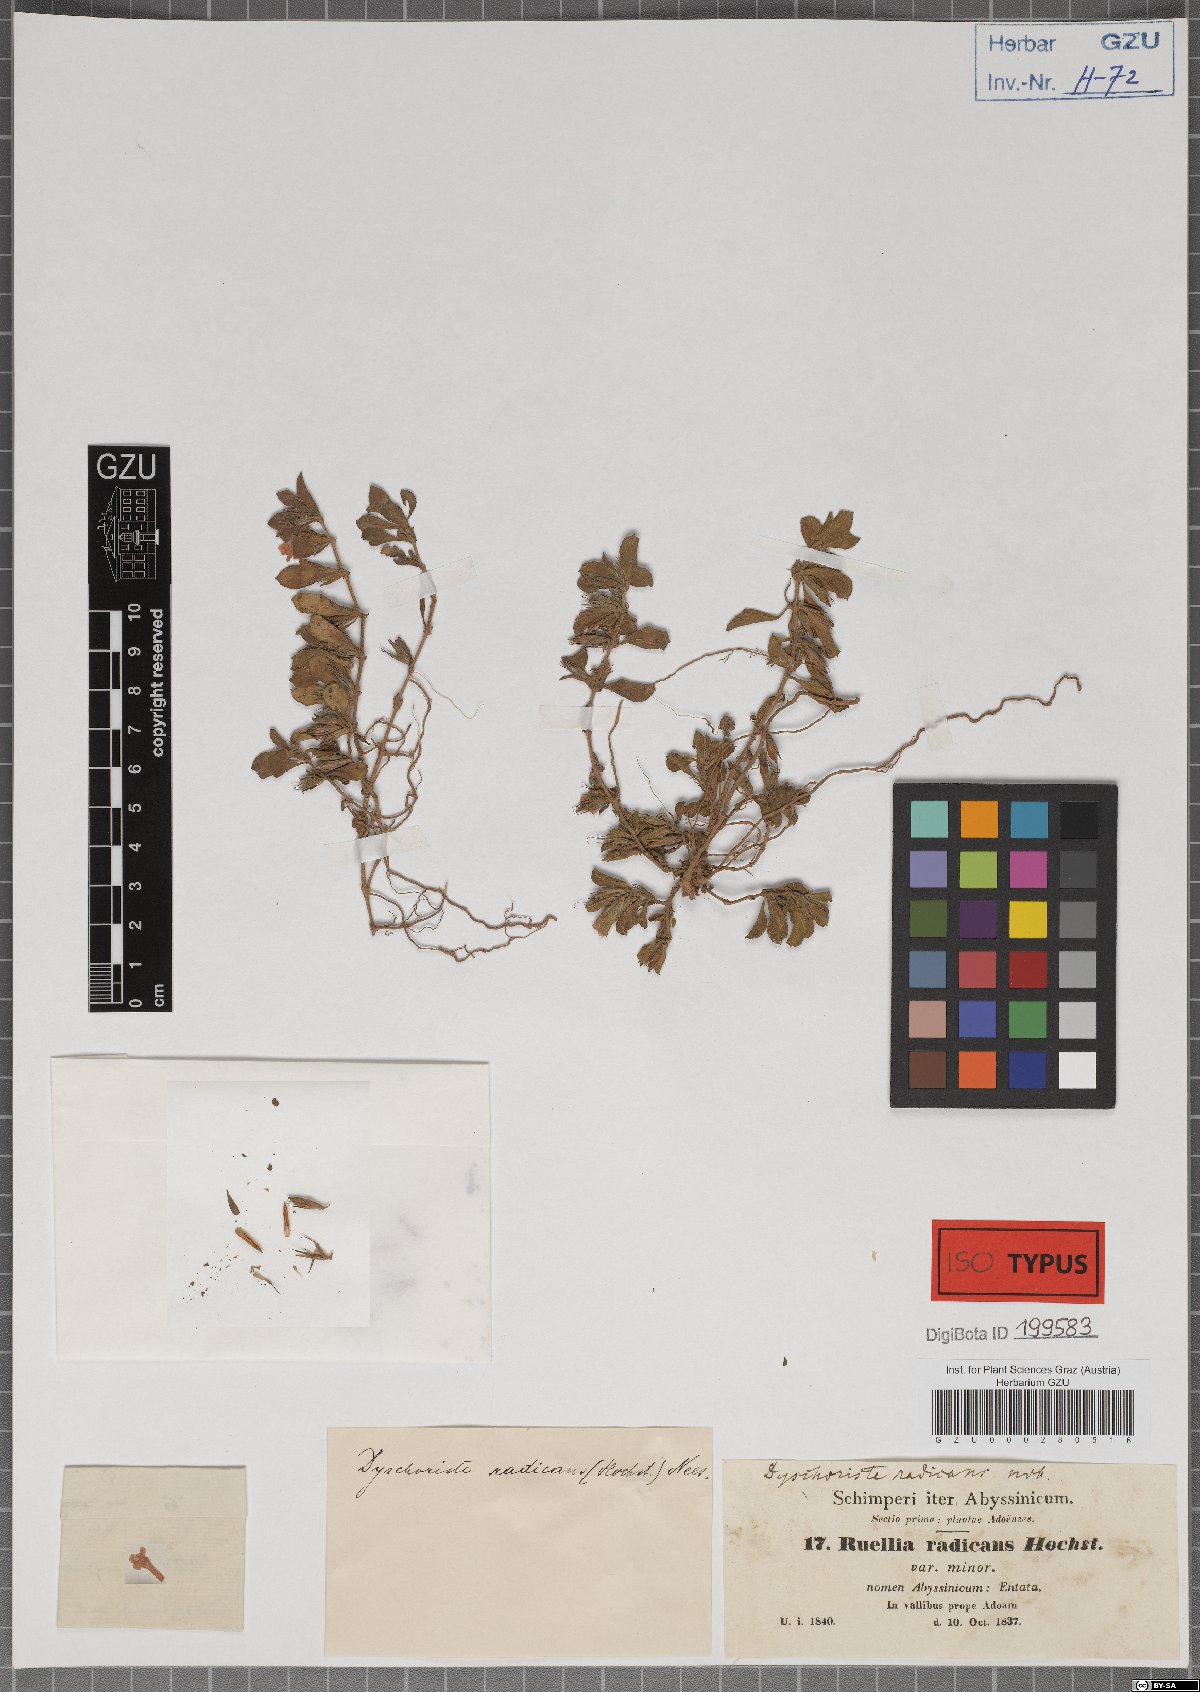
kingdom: Plantae
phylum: Tracheophyta
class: Magnoliopsida
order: Lamiales
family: Acanthaceae
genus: Dyschoriste
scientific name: Dyschoriste radicans
